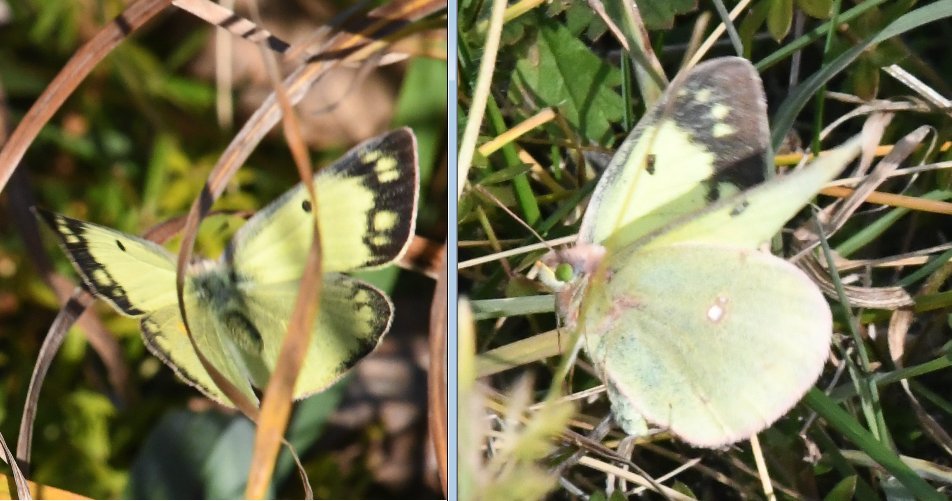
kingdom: Animalia
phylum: Arthropoda
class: Insecta
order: Lepidoptera
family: Pieridae
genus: Colias
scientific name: Colias philodice
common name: Clouded Sulphur
